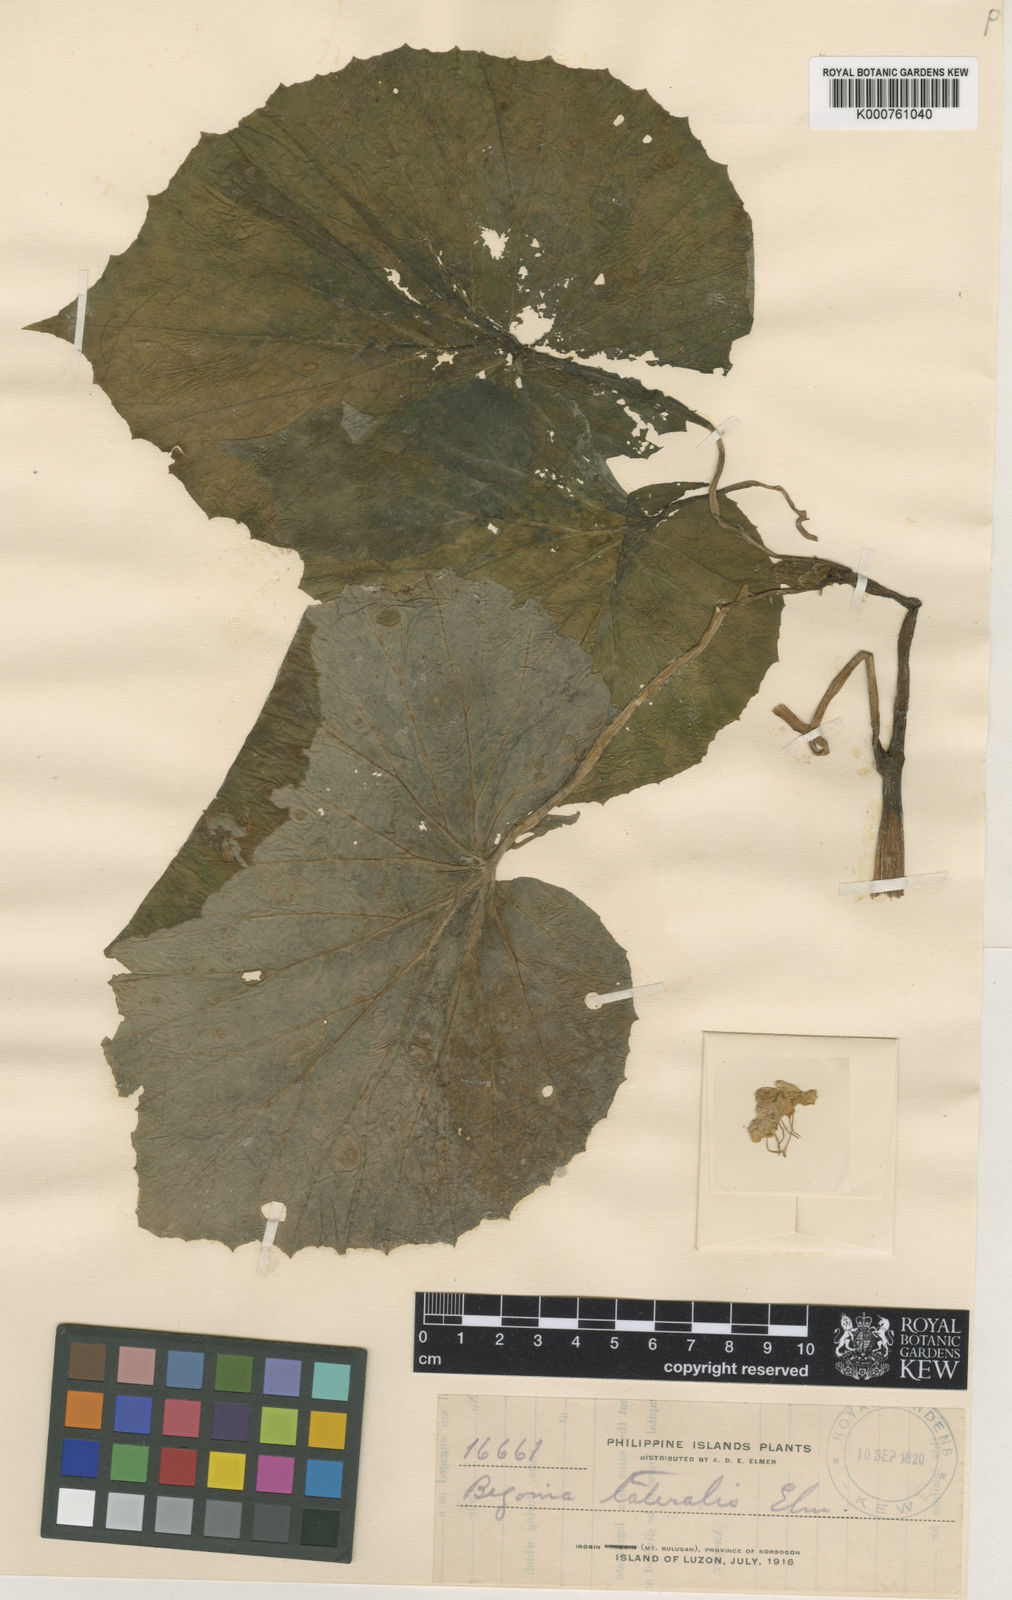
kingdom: Plantae
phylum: Tracheophyta
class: Magnoliopsida
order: Cucurbitales
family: Begoniaceae
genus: Begonia
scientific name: Begonia pseudolateralis
